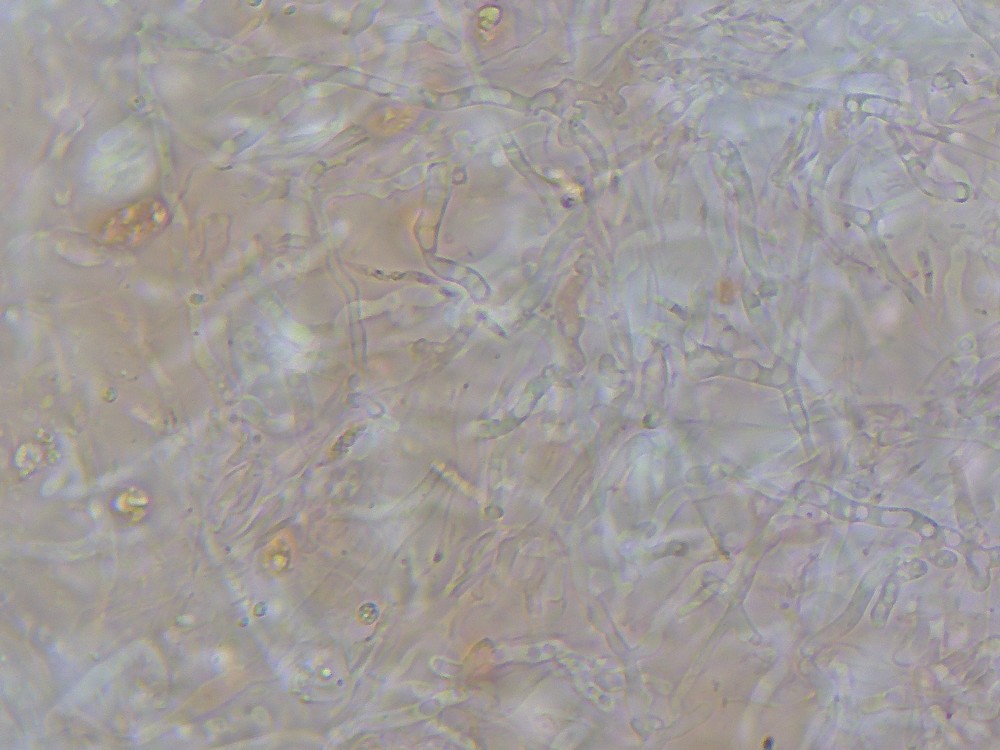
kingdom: Fungi
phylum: Basidiomycota
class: Agaricomycetes
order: Auriculariales
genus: Stypella
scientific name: Stypella grilletii
